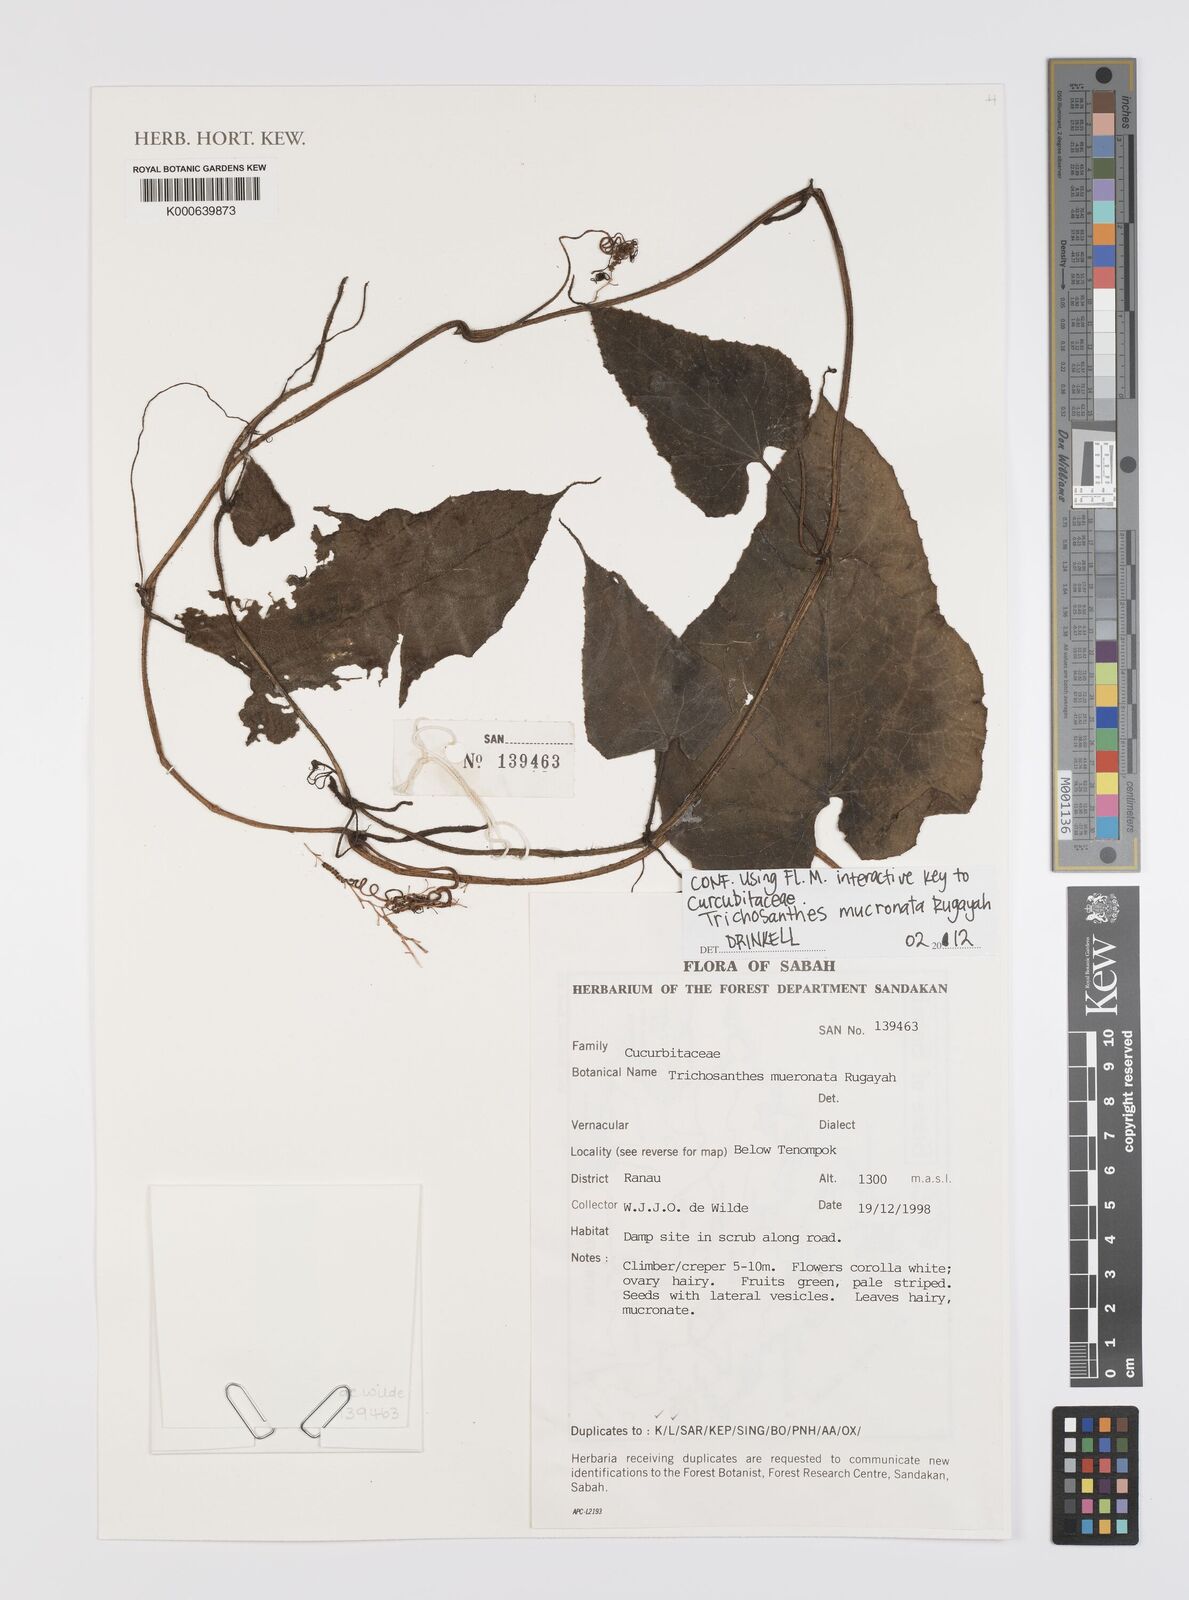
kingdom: Plantae
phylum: Tracheophyta
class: Magnoliopsida
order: Cucurbitales
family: Cucurbitaceae
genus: Trichosanthes
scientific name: Trichosanthes mucronata
